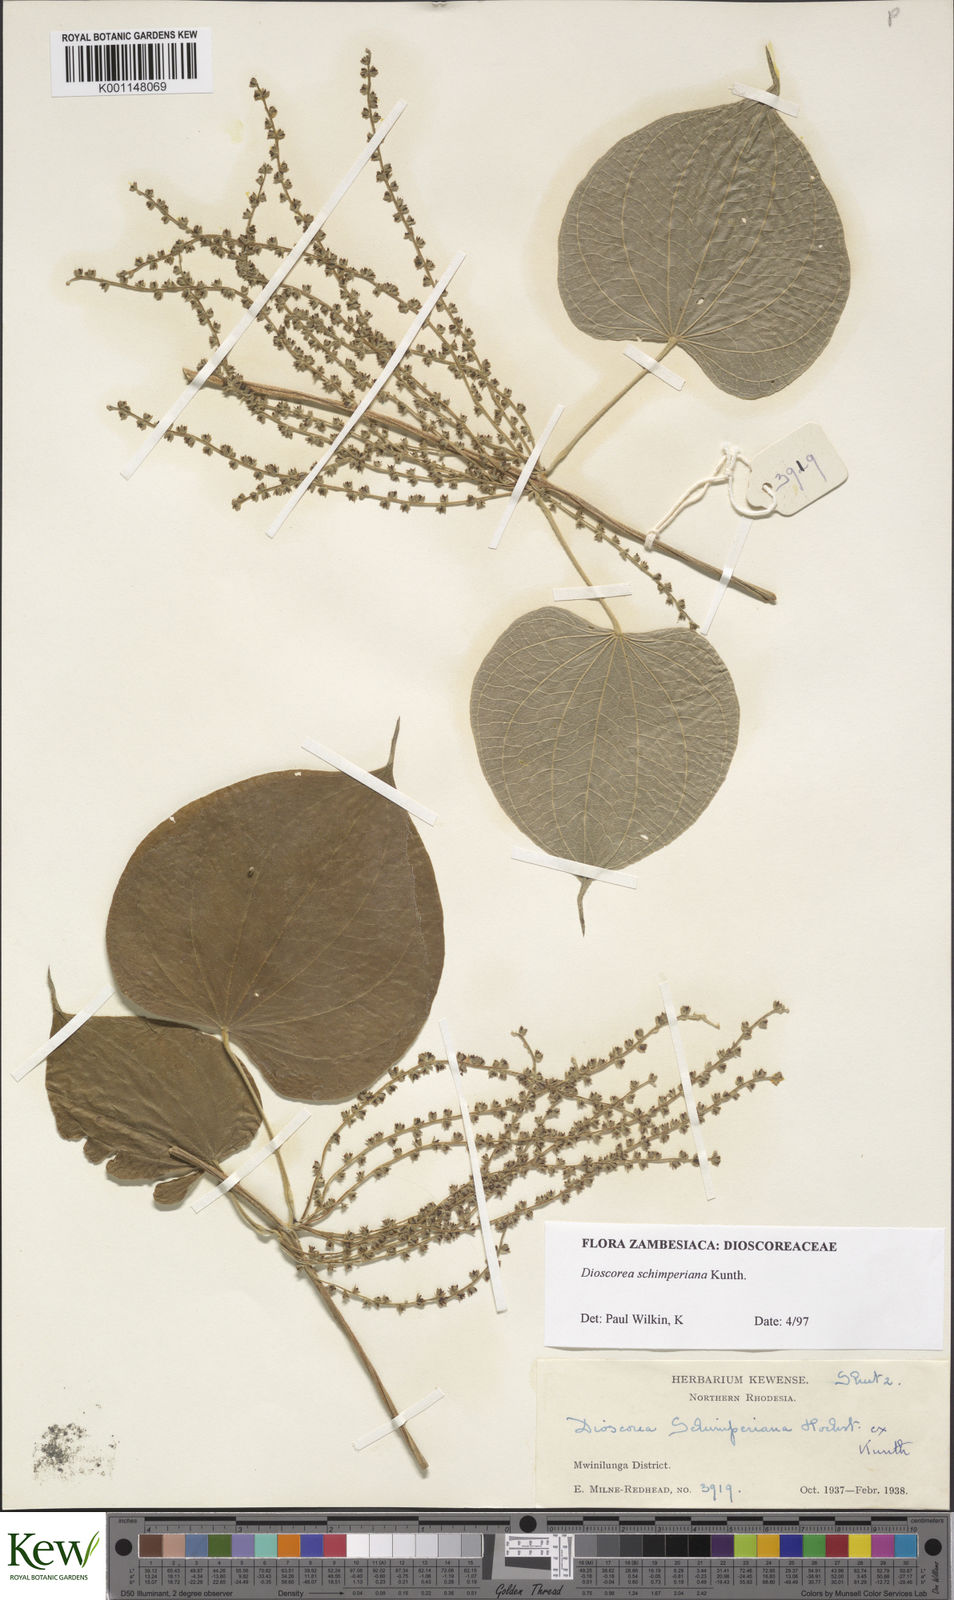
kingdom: Plantae
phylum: Tracheophyta
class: Liliopsida
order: Dioscoreales
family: Dioscoreaceae
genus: Dioscorea
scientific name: Dioscorea schimperiana
